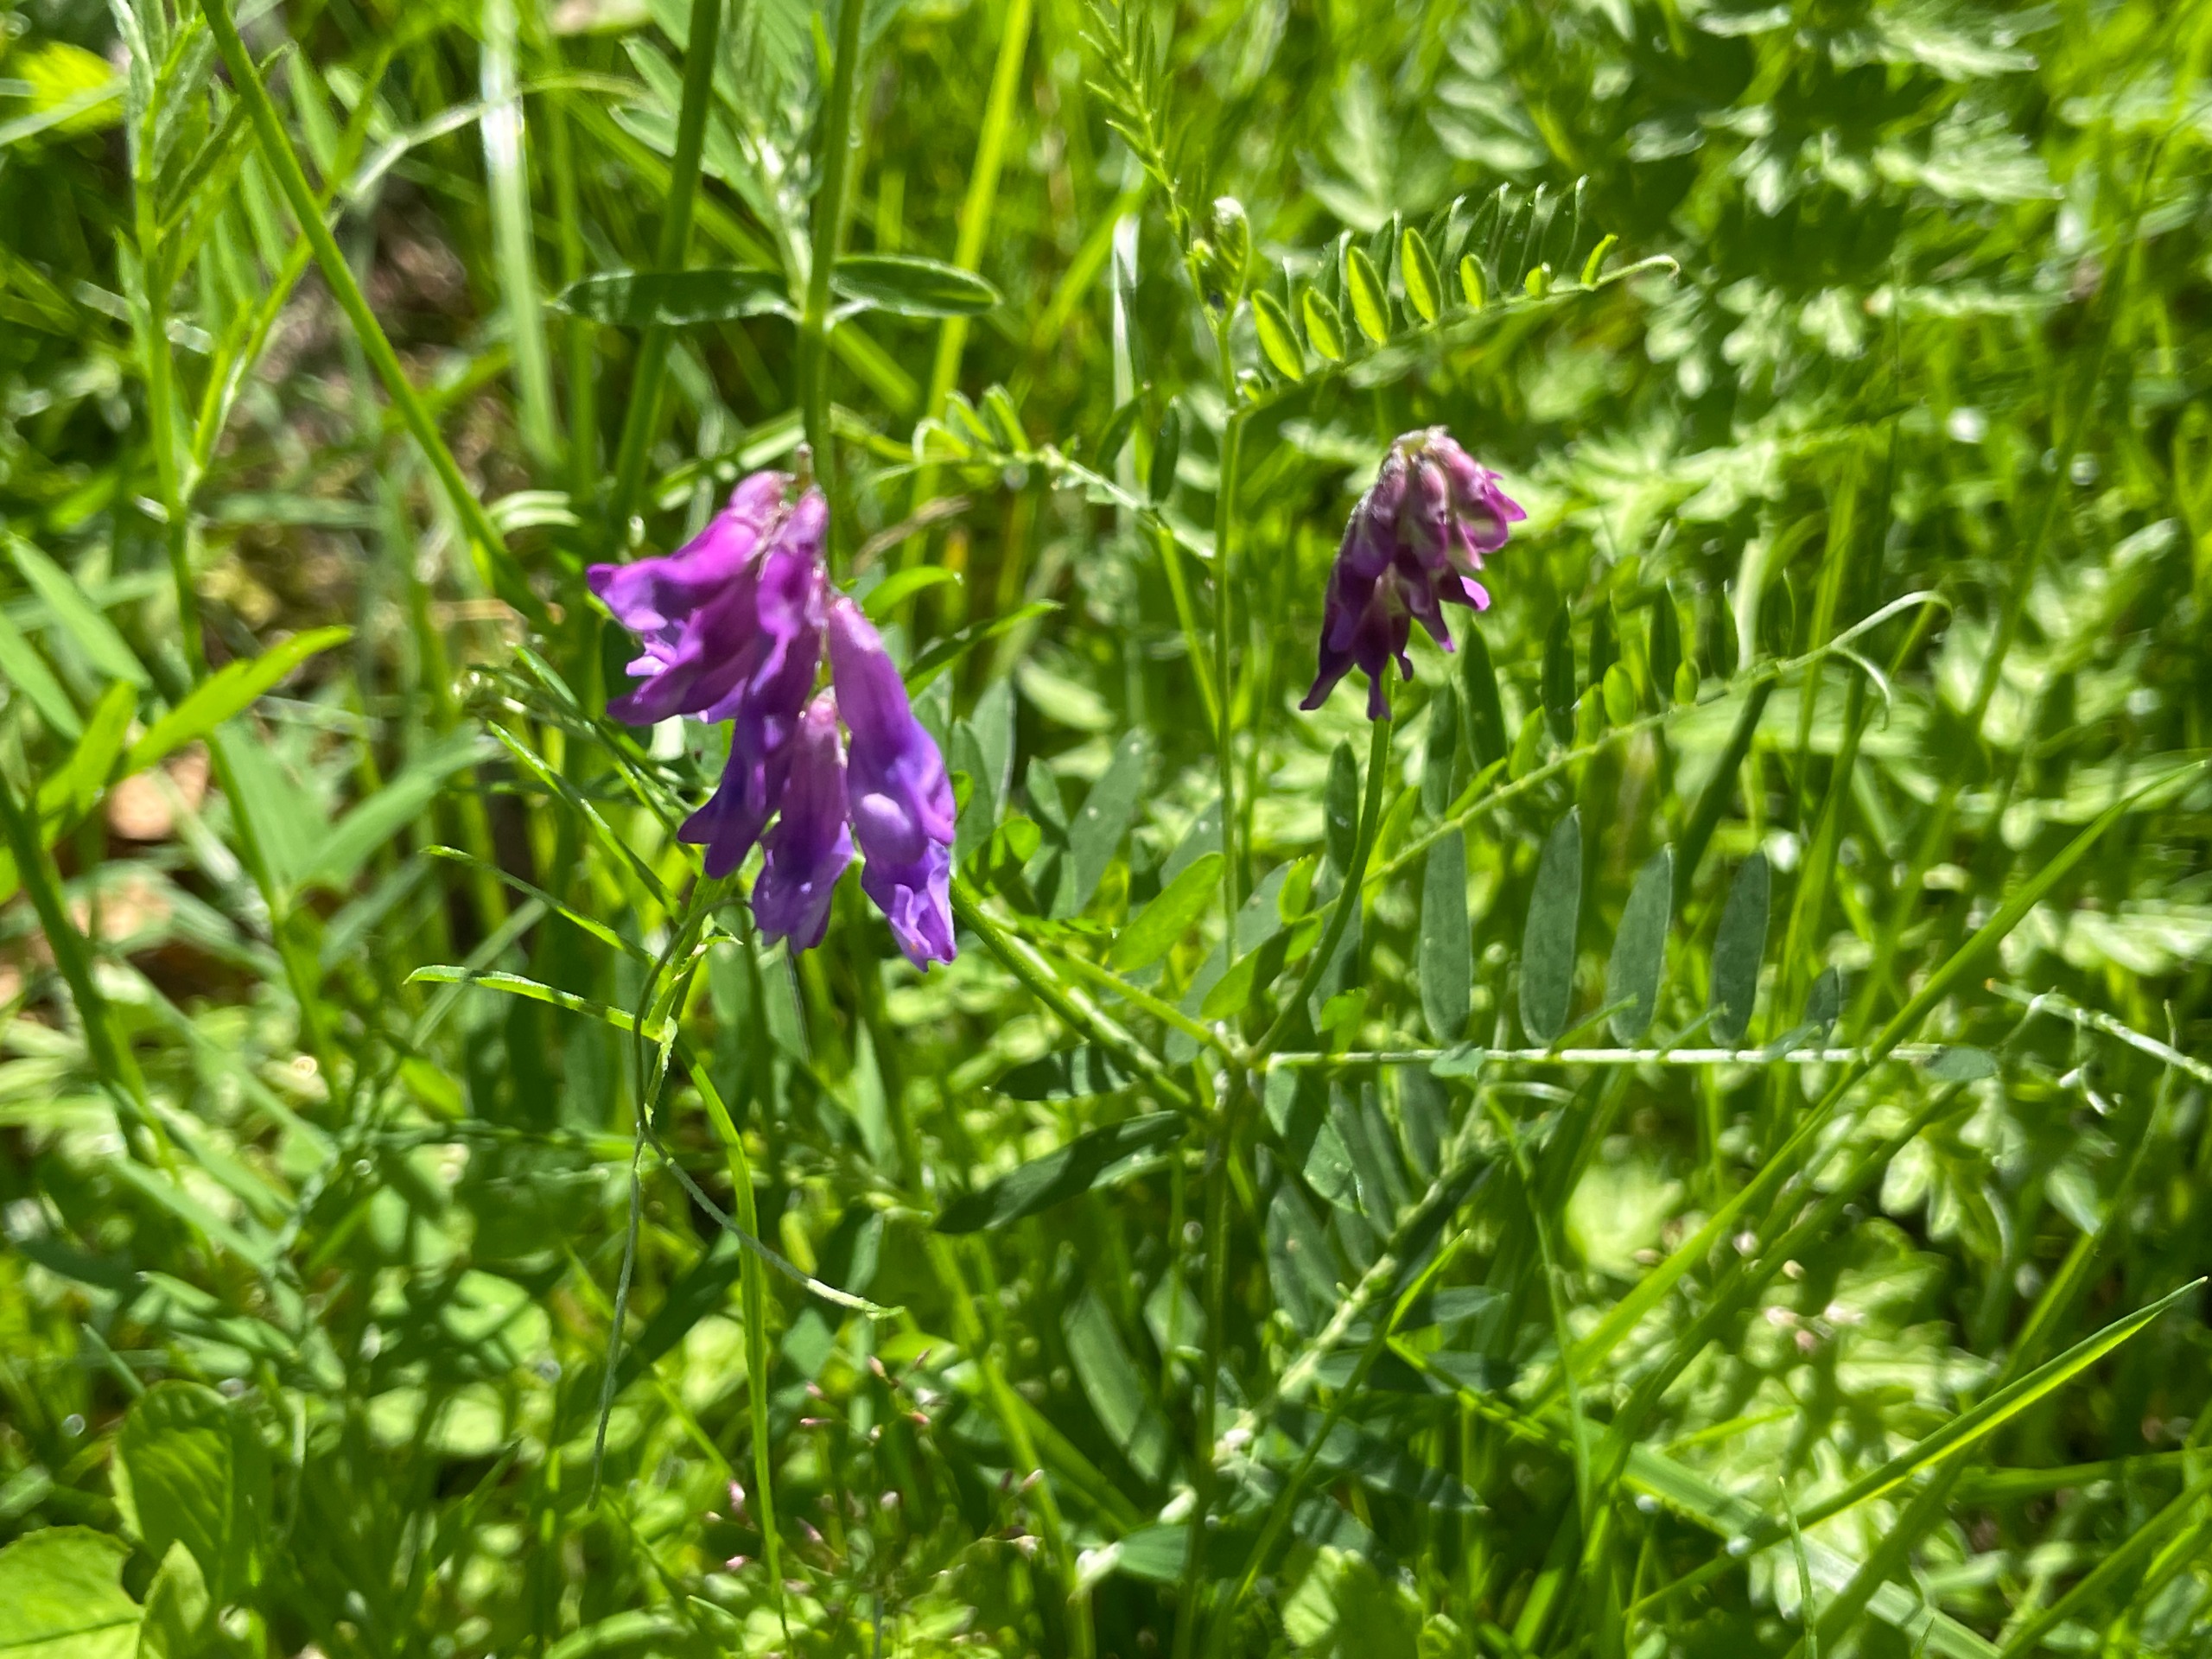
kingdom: Plantae
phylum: Tracheophyta
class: Magnoliopsida
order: Fabales
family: Fabaceae
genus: Vicia
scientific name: Vicia cracca
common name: Muse-vikke
